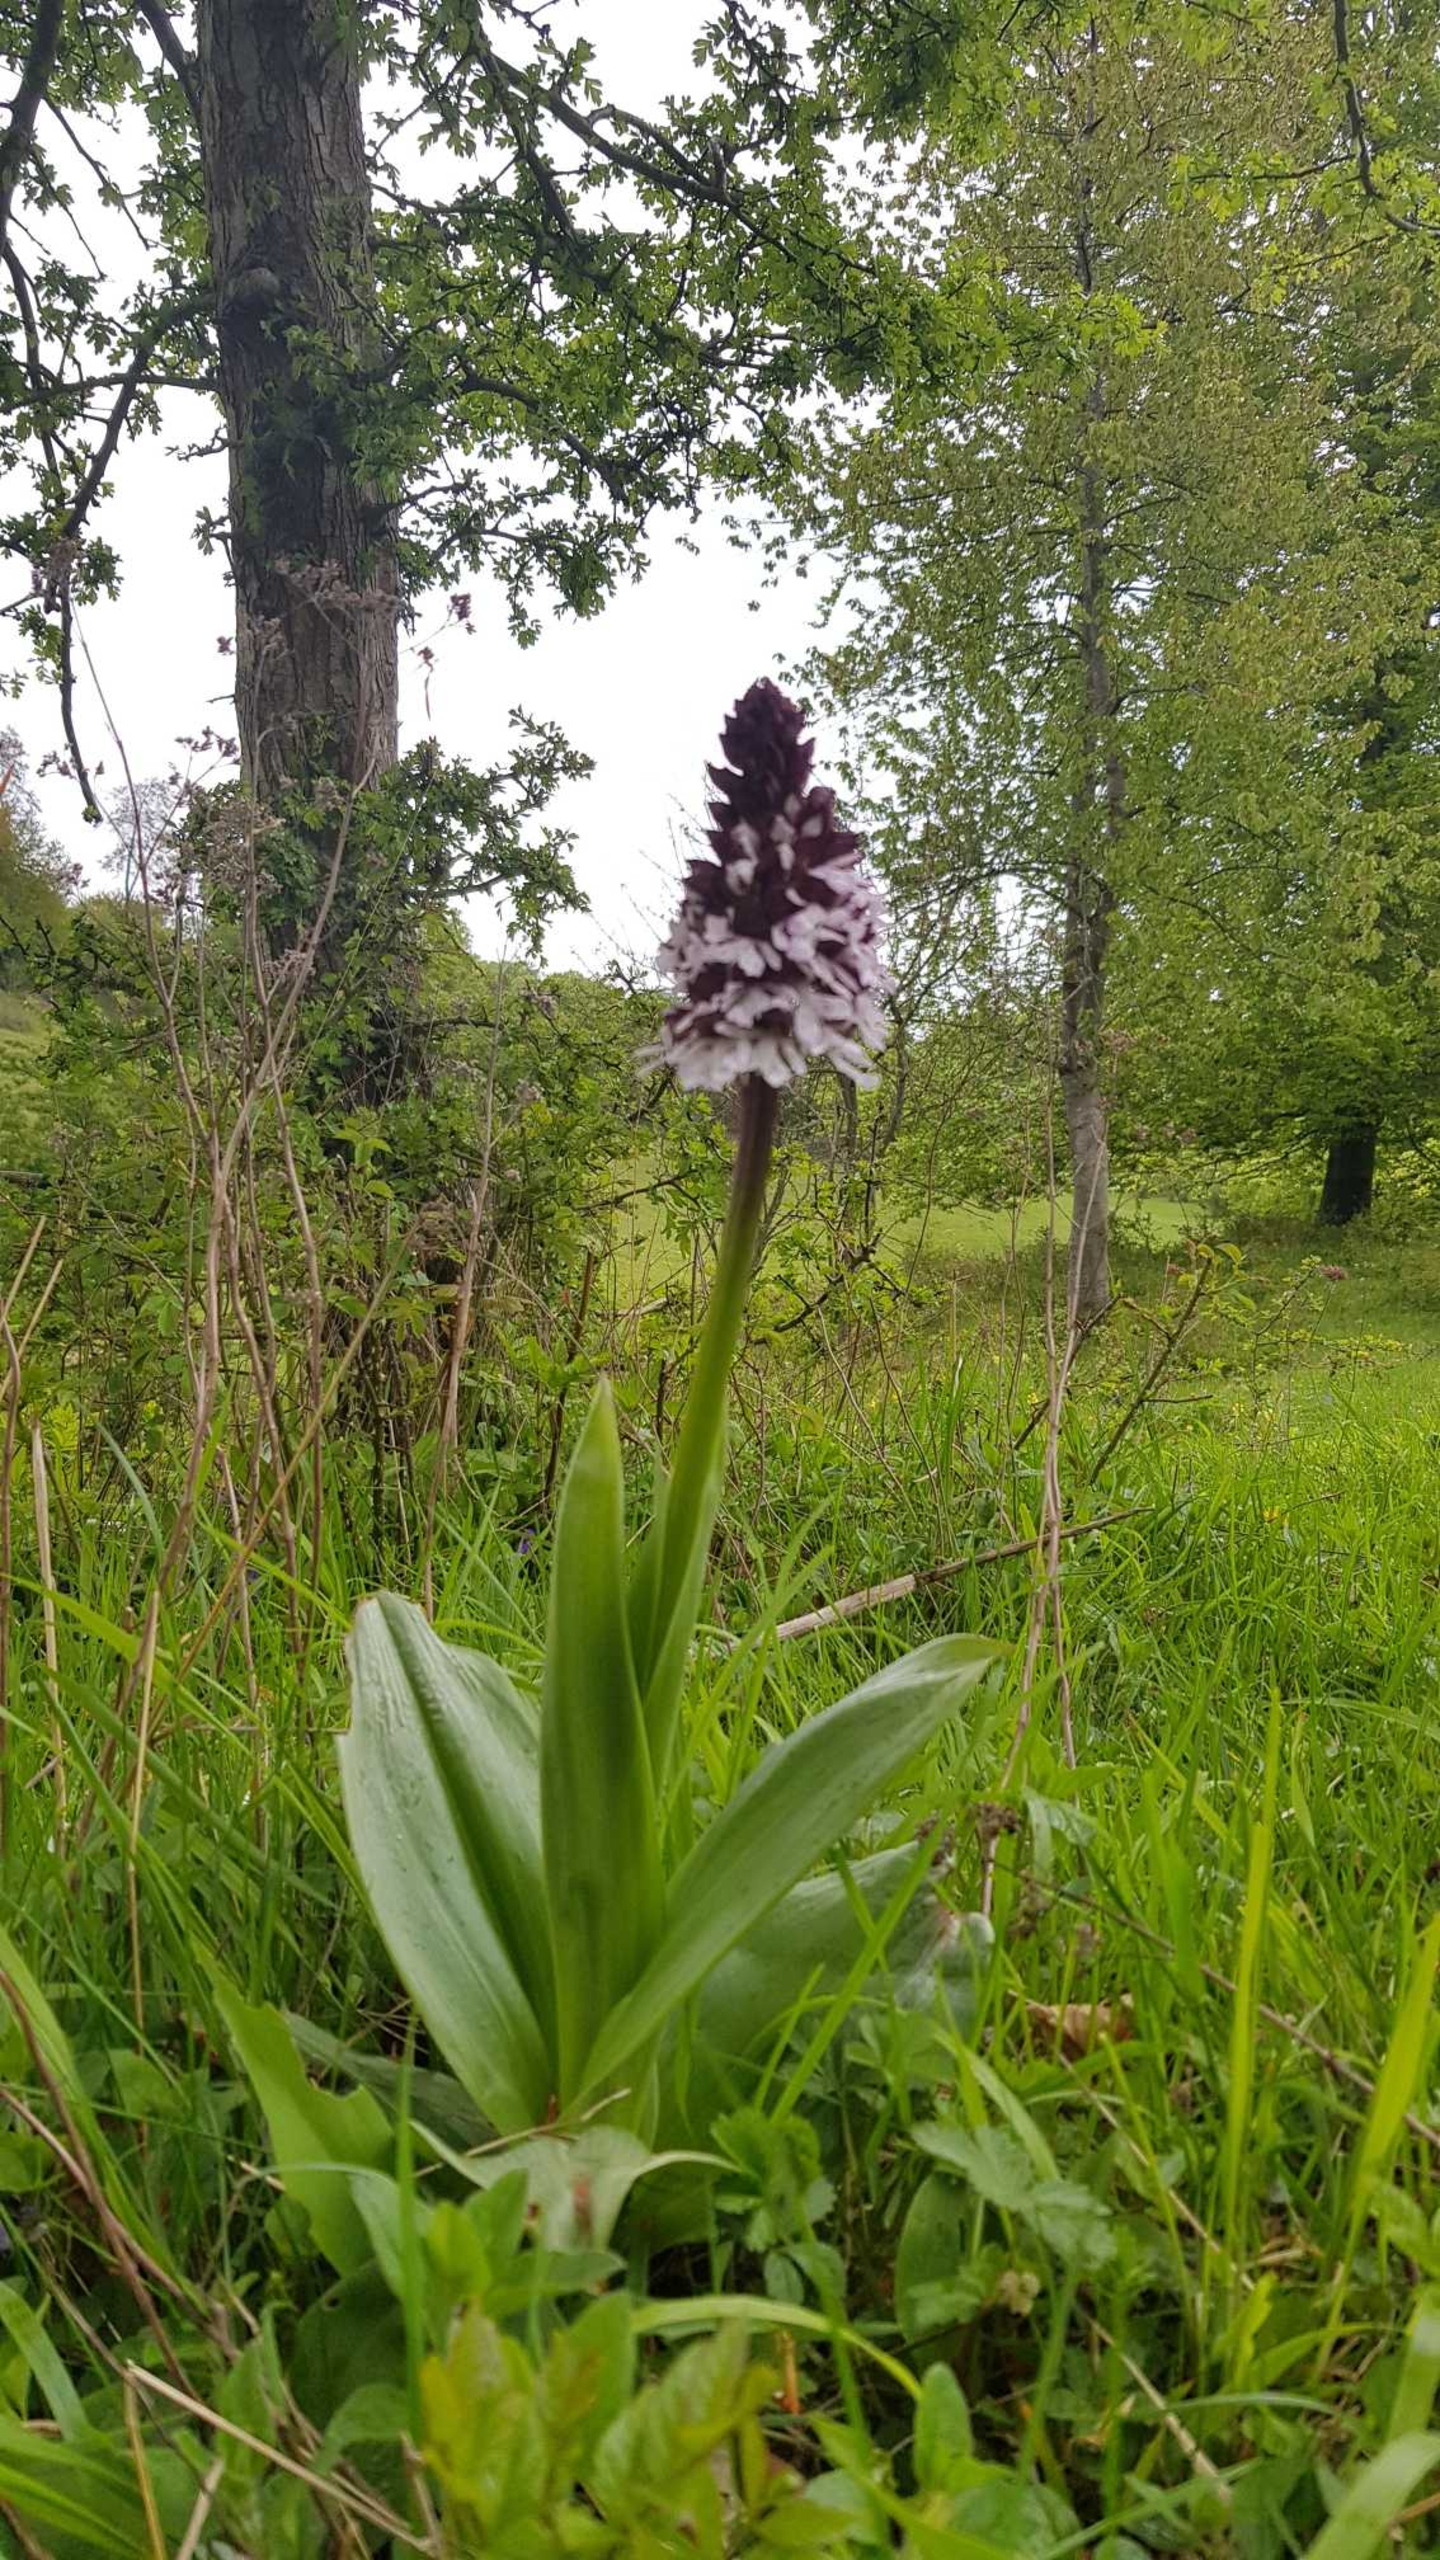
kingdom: Plantae
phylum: Tracheophyta
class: Liliopsida
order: Asparagales
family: Orchidaceae
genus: Orchis
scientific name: Orchis purpurea
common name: Stor gøgeurt
